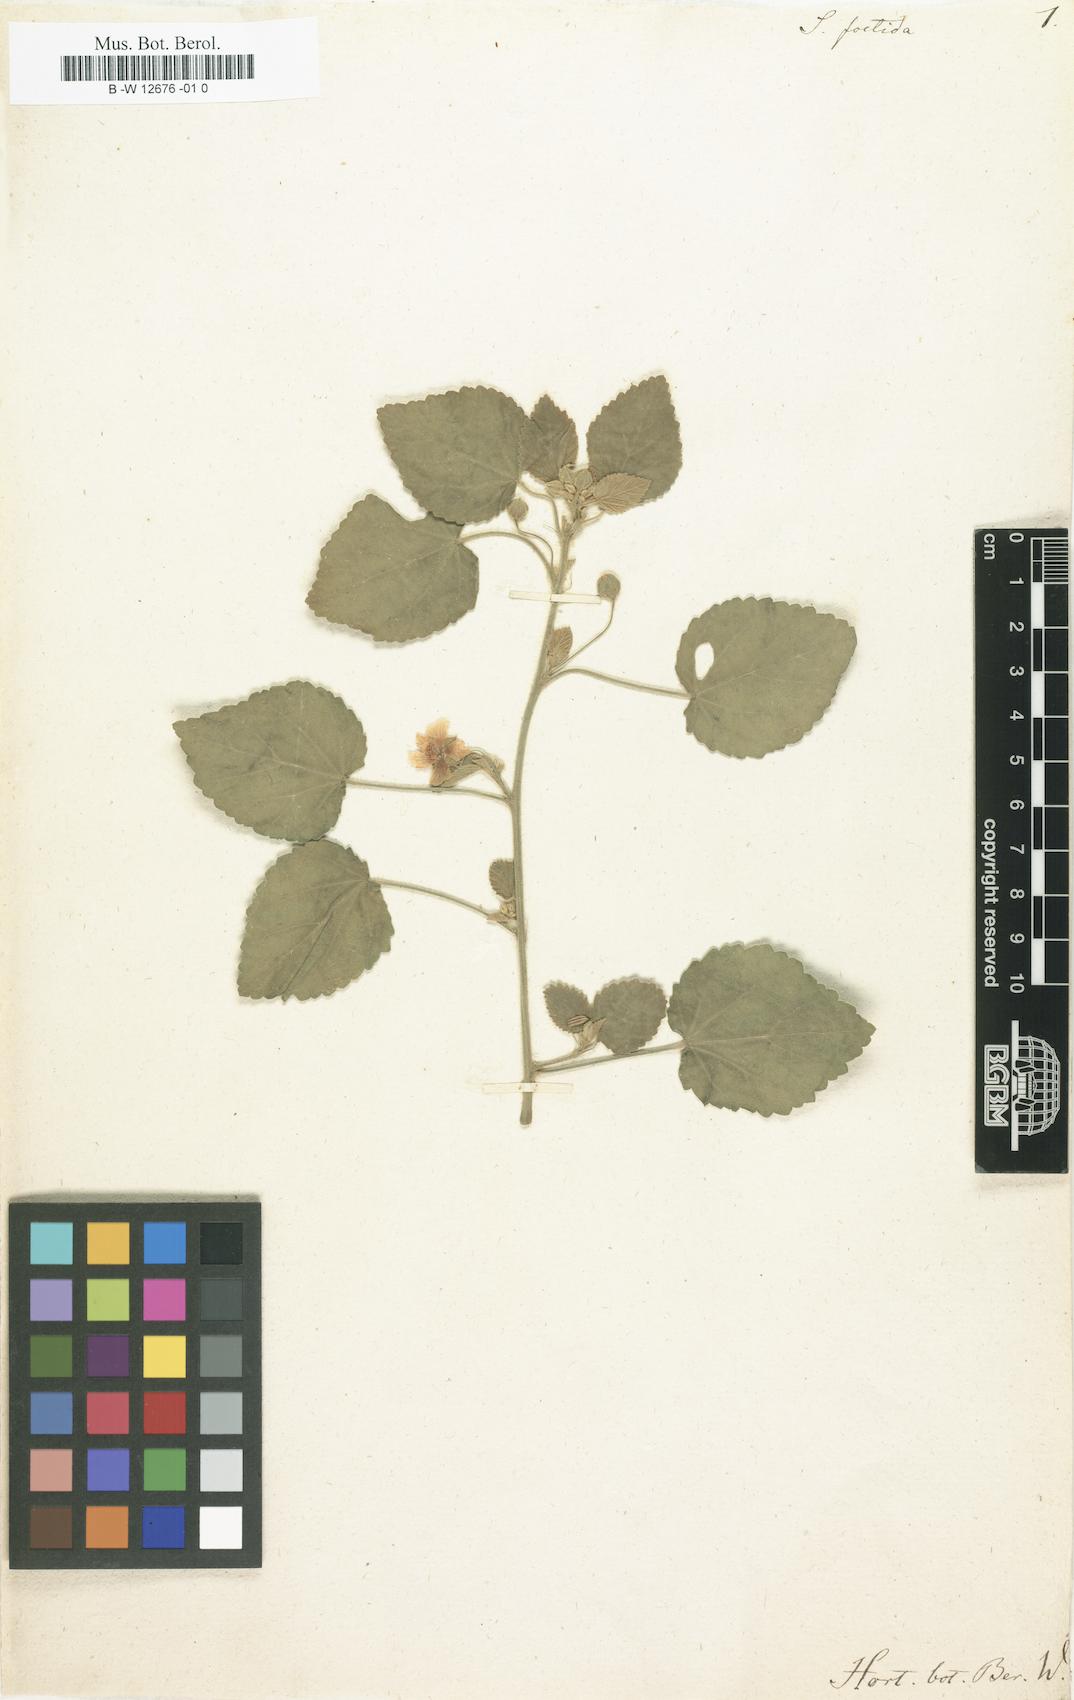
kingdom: Plantae
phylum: Tracheophyta
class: Magnoliopsida
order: Malvales
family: Malvaceae
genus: Abutilon
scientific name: Abutilon viscosum
